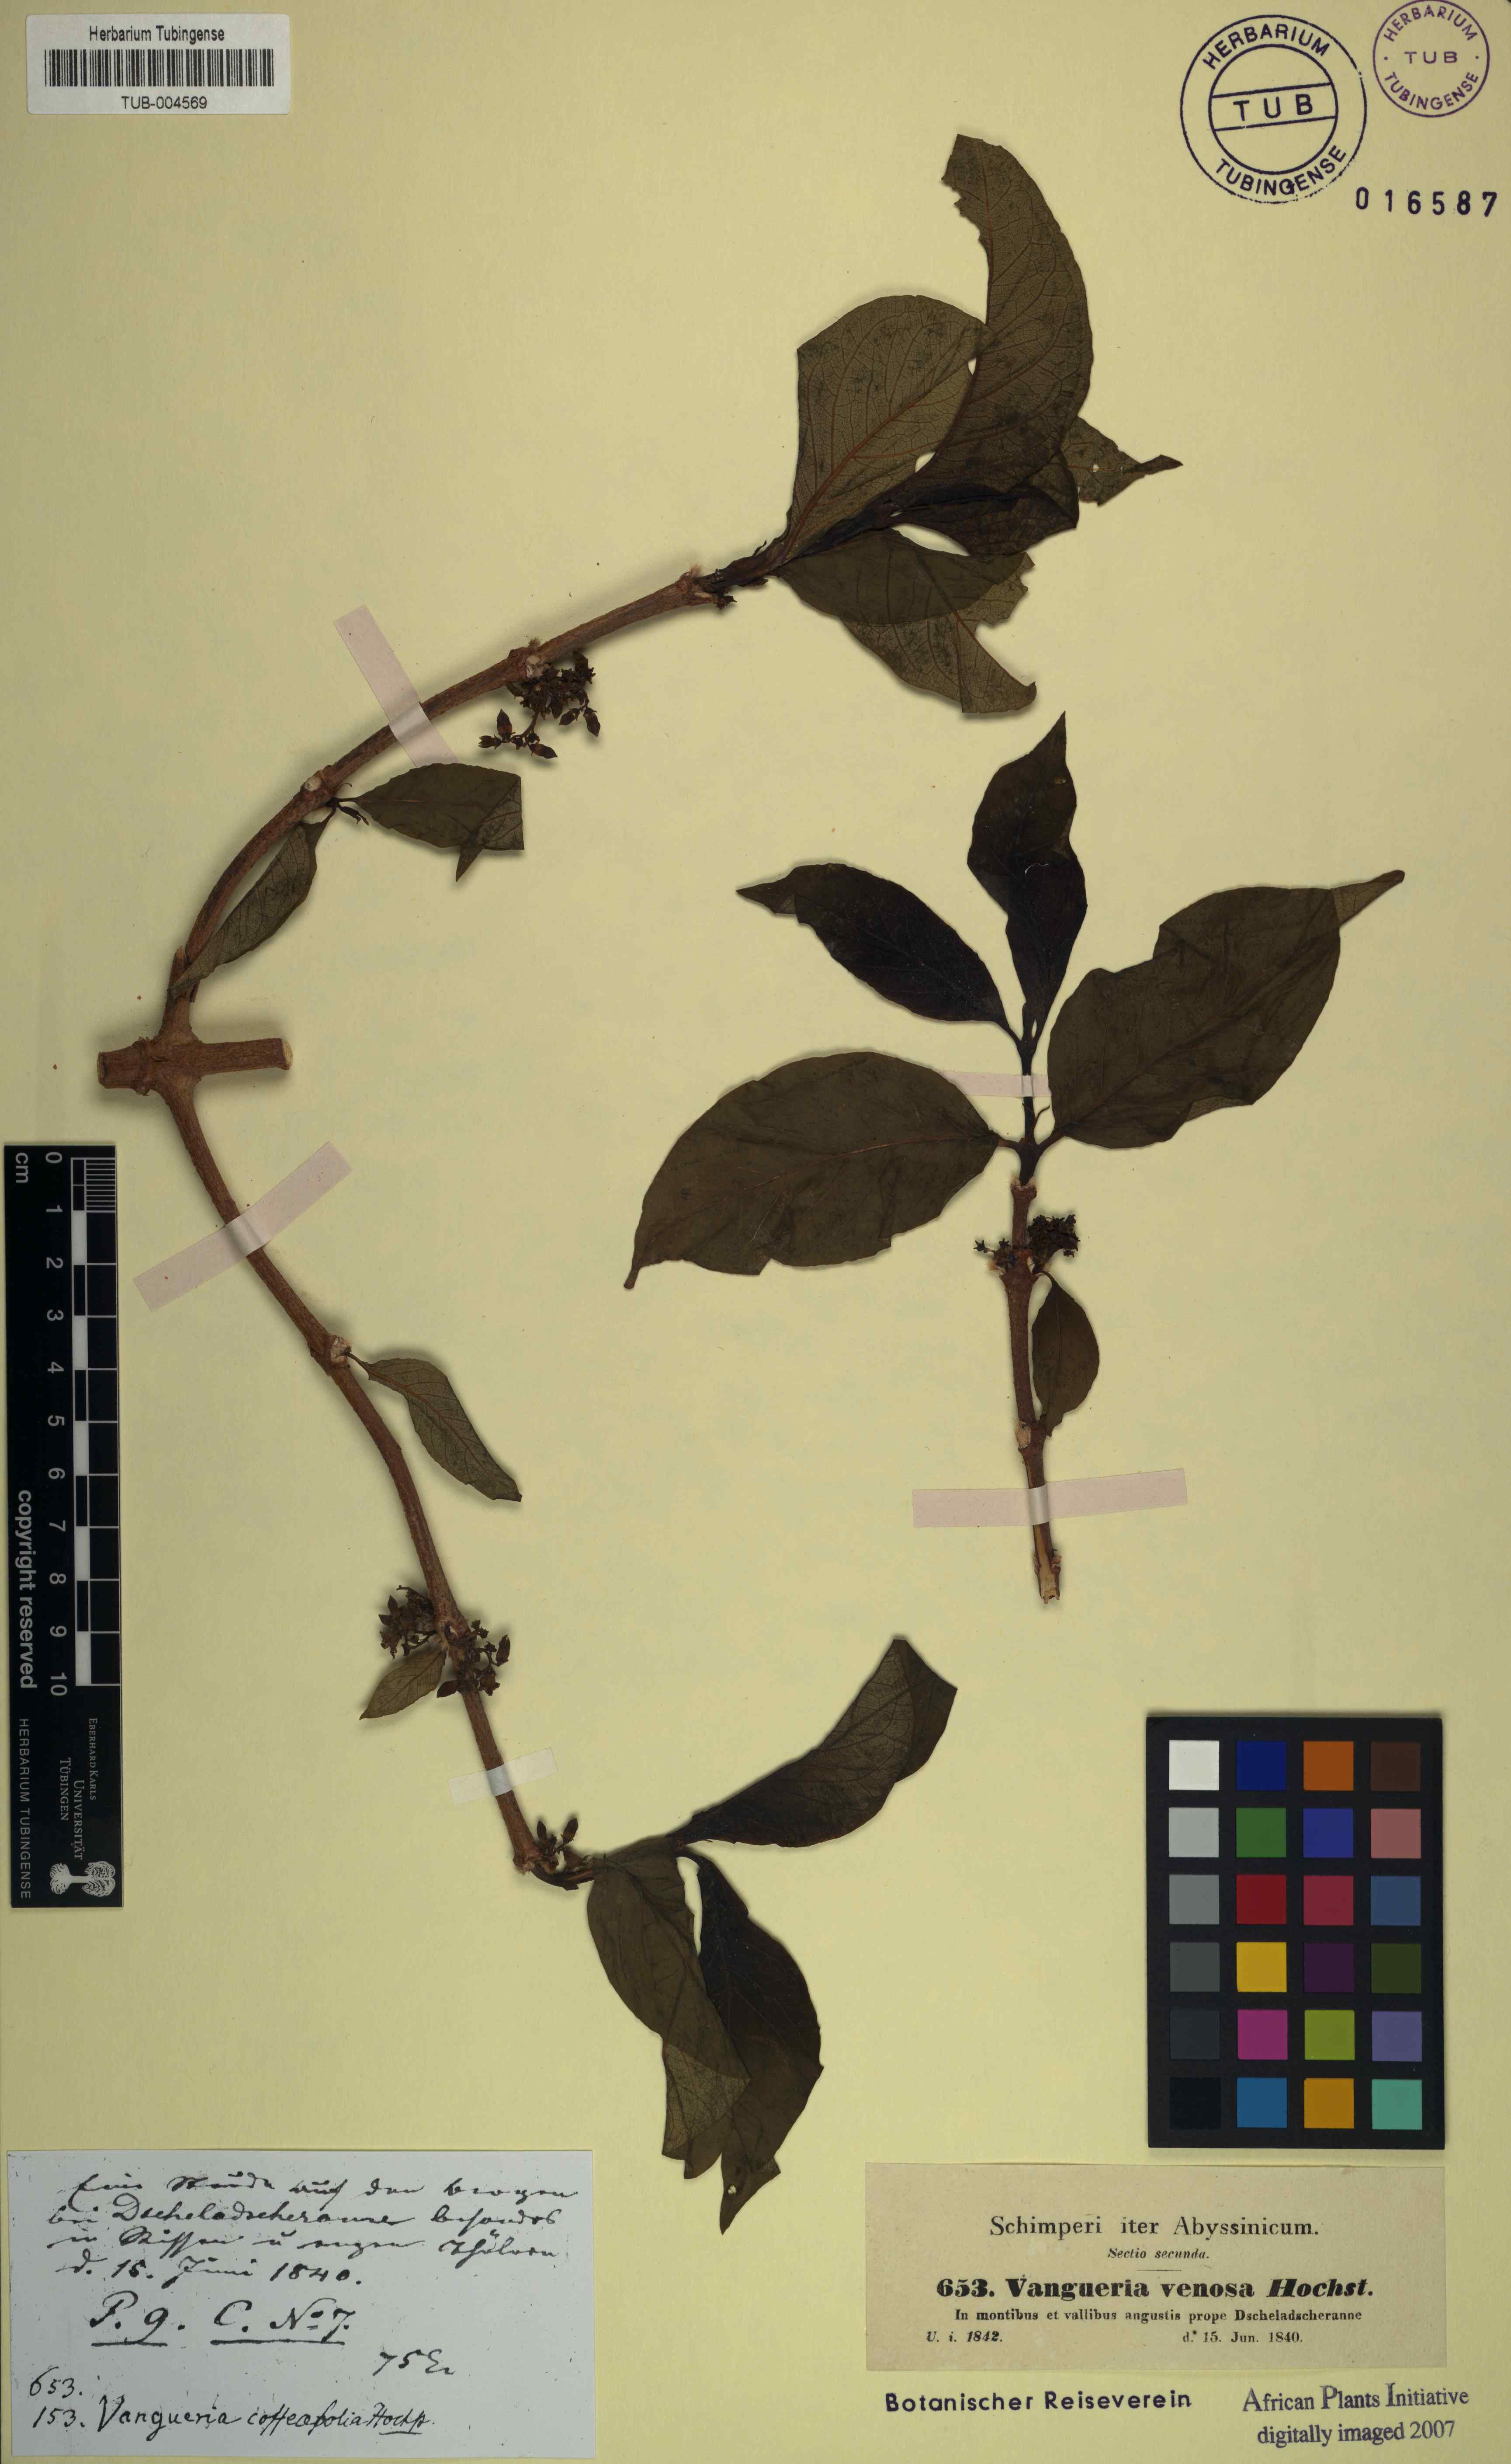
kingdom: Plantae
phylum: Tracheophyta
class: Magnoliopsida
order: Gentianales
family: Rubiaceae
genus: Vangueria
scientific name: Vangueria madagascariensis
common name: Smooth wild-medlar
